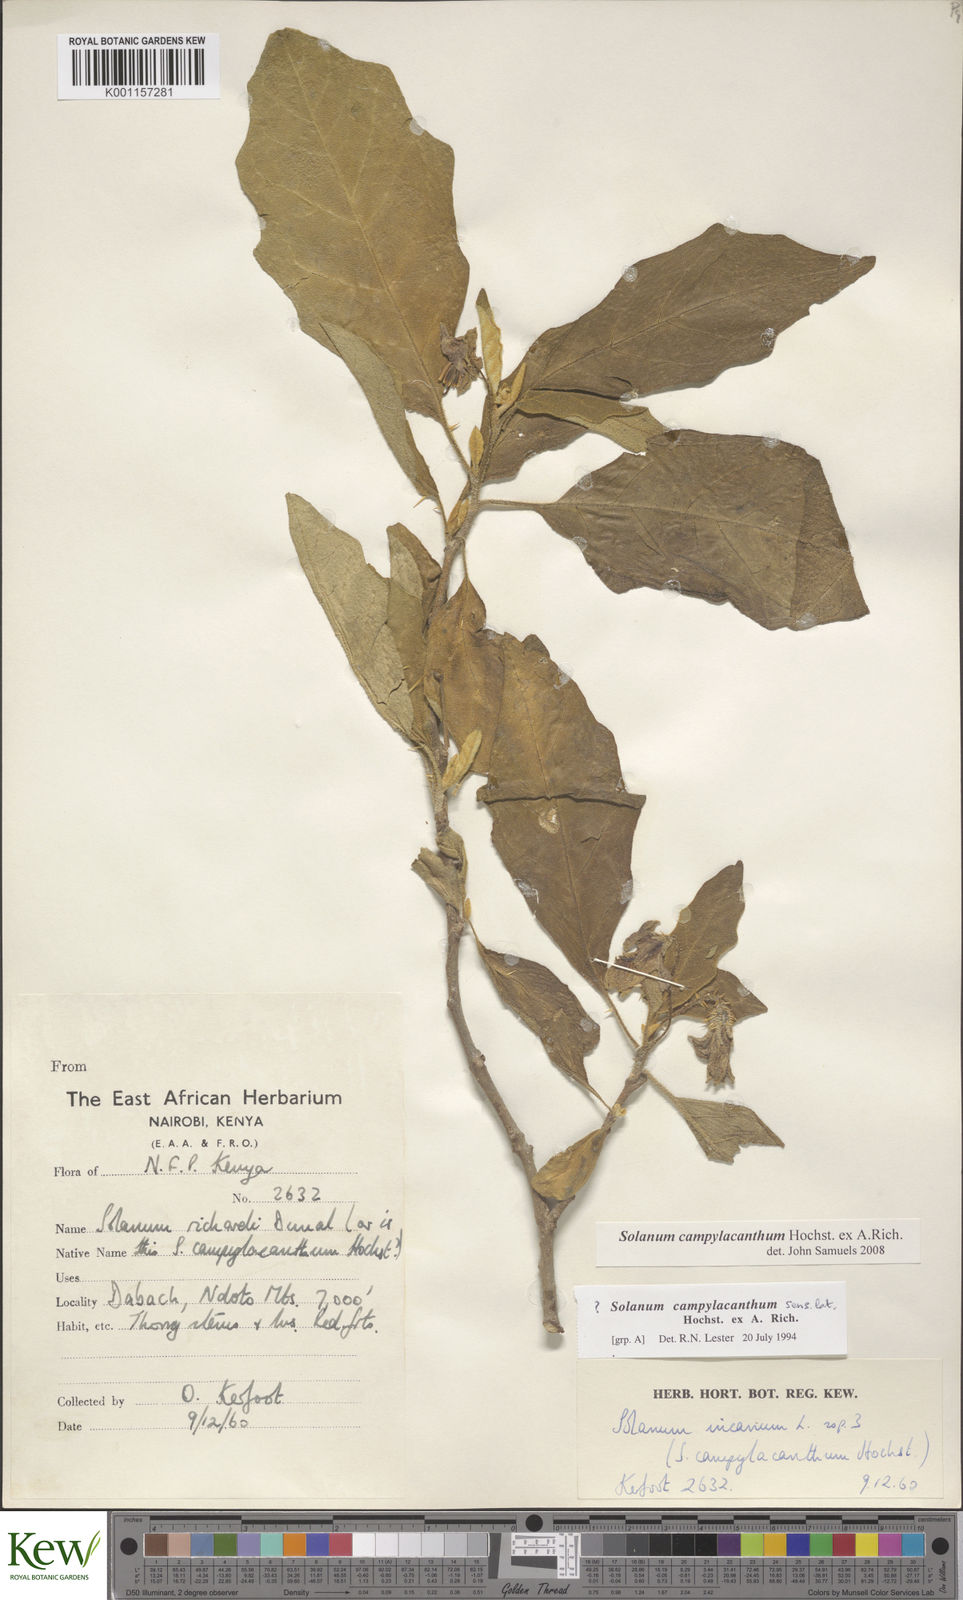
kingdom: Plantae
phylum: Tracheophyta
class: Magnoliopsida
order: Solanales
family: Solanaceae
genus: Solanum
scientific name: Solanum campylacanthum
